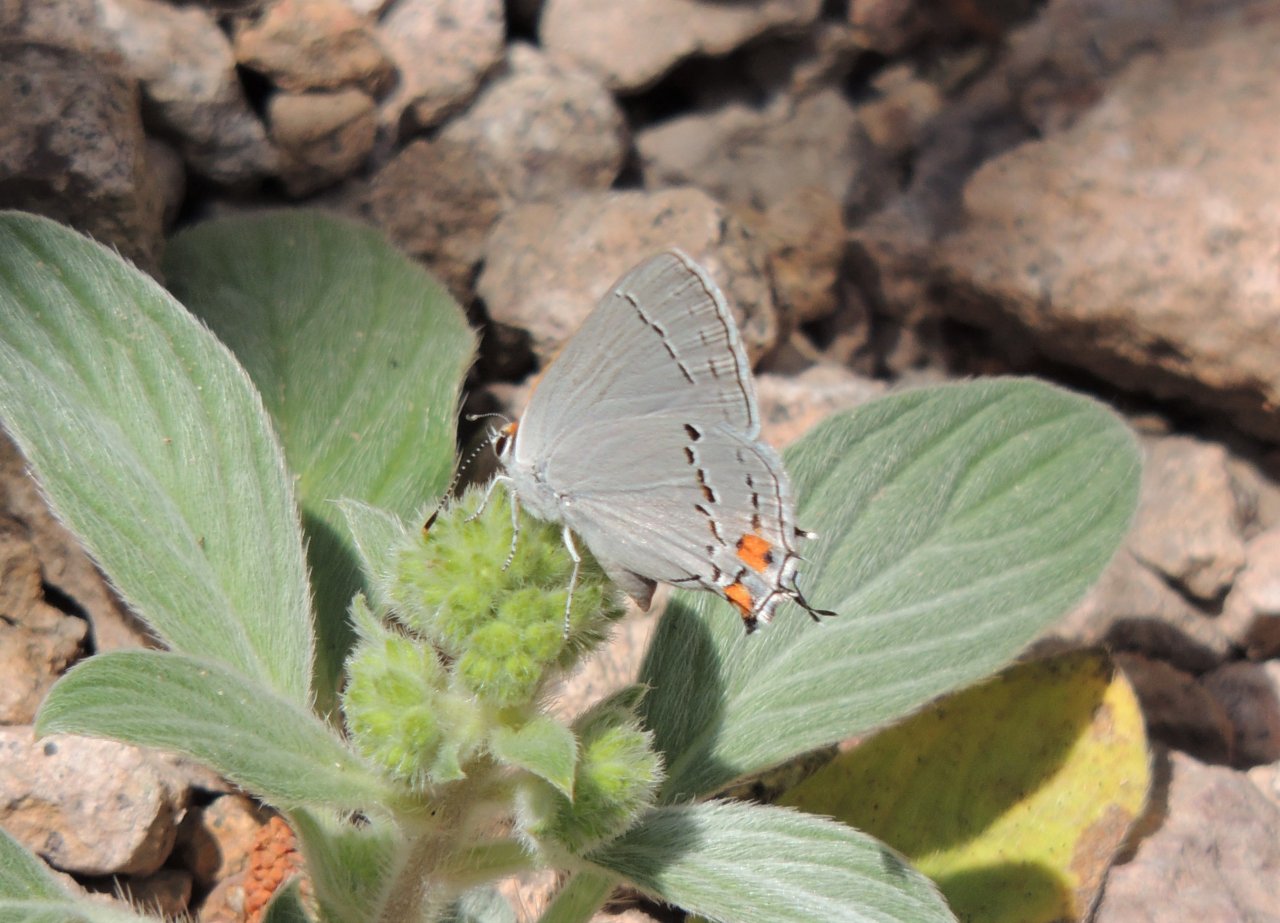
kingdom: Animalia
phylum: Arthropoda
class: Insecta
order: Lepidoptera
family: Lycaenidae
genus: Strymon
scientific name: Strymon melinus
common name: Gray Hairstreak
